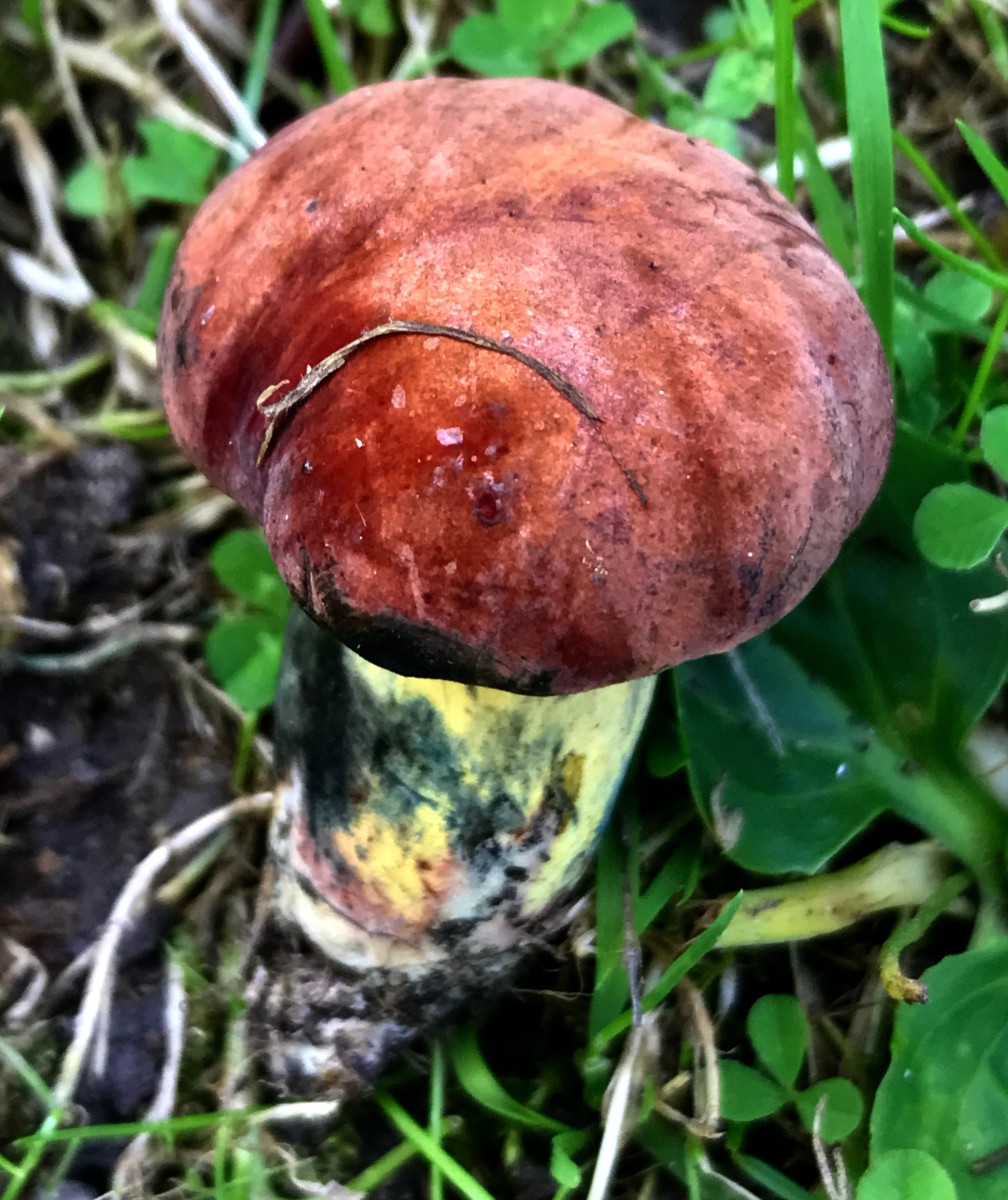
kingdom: Fungi
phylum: Basidiomycota
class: Agaricomycetes
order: Boletales
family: Boletaceae
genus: Suillellus
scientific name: Suillellus queletii
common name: glatstokket indigorørhat
